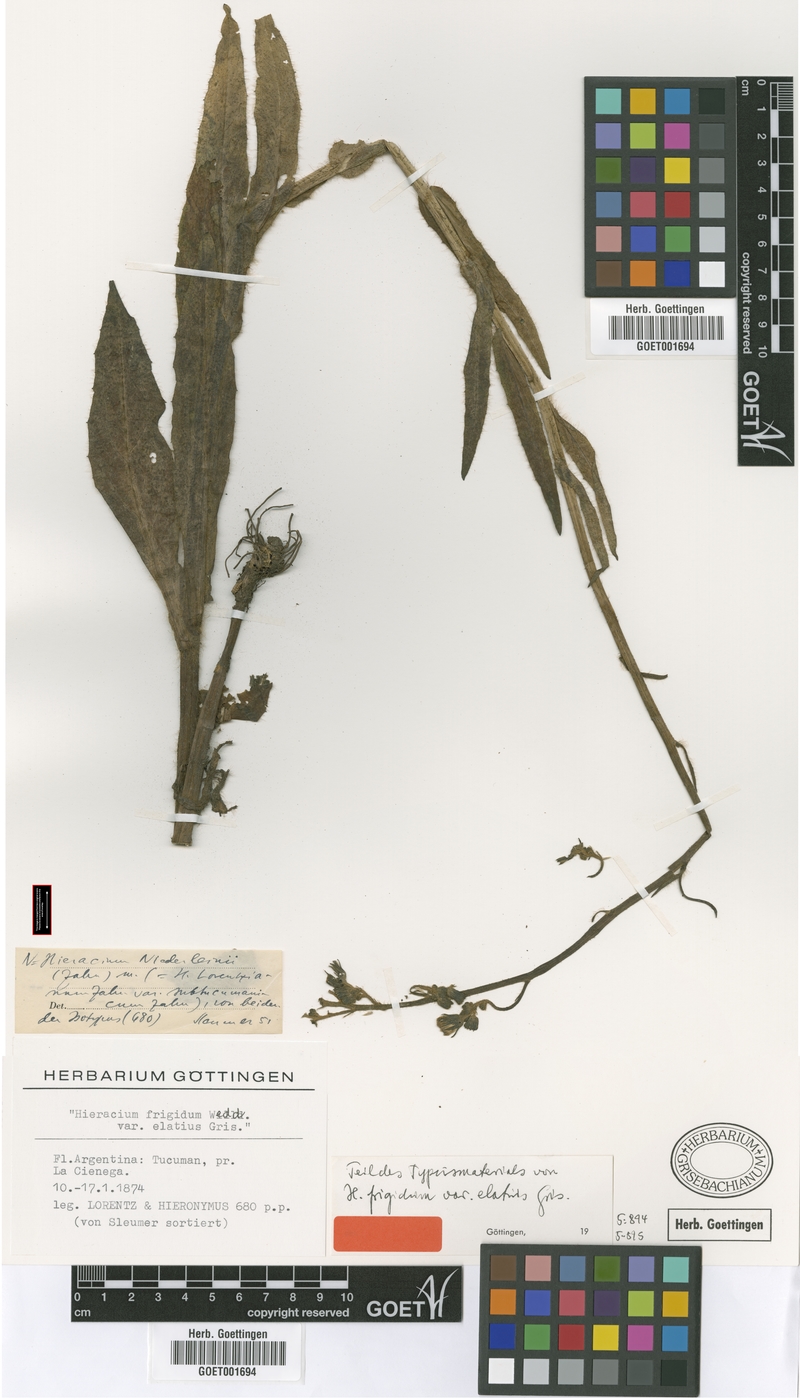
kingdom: Plantae
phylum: Tracheophyta
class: Magnoliopsida
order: Asterales
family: Asteraceae
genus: Hieracium
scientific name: Hieracium niederleinii
